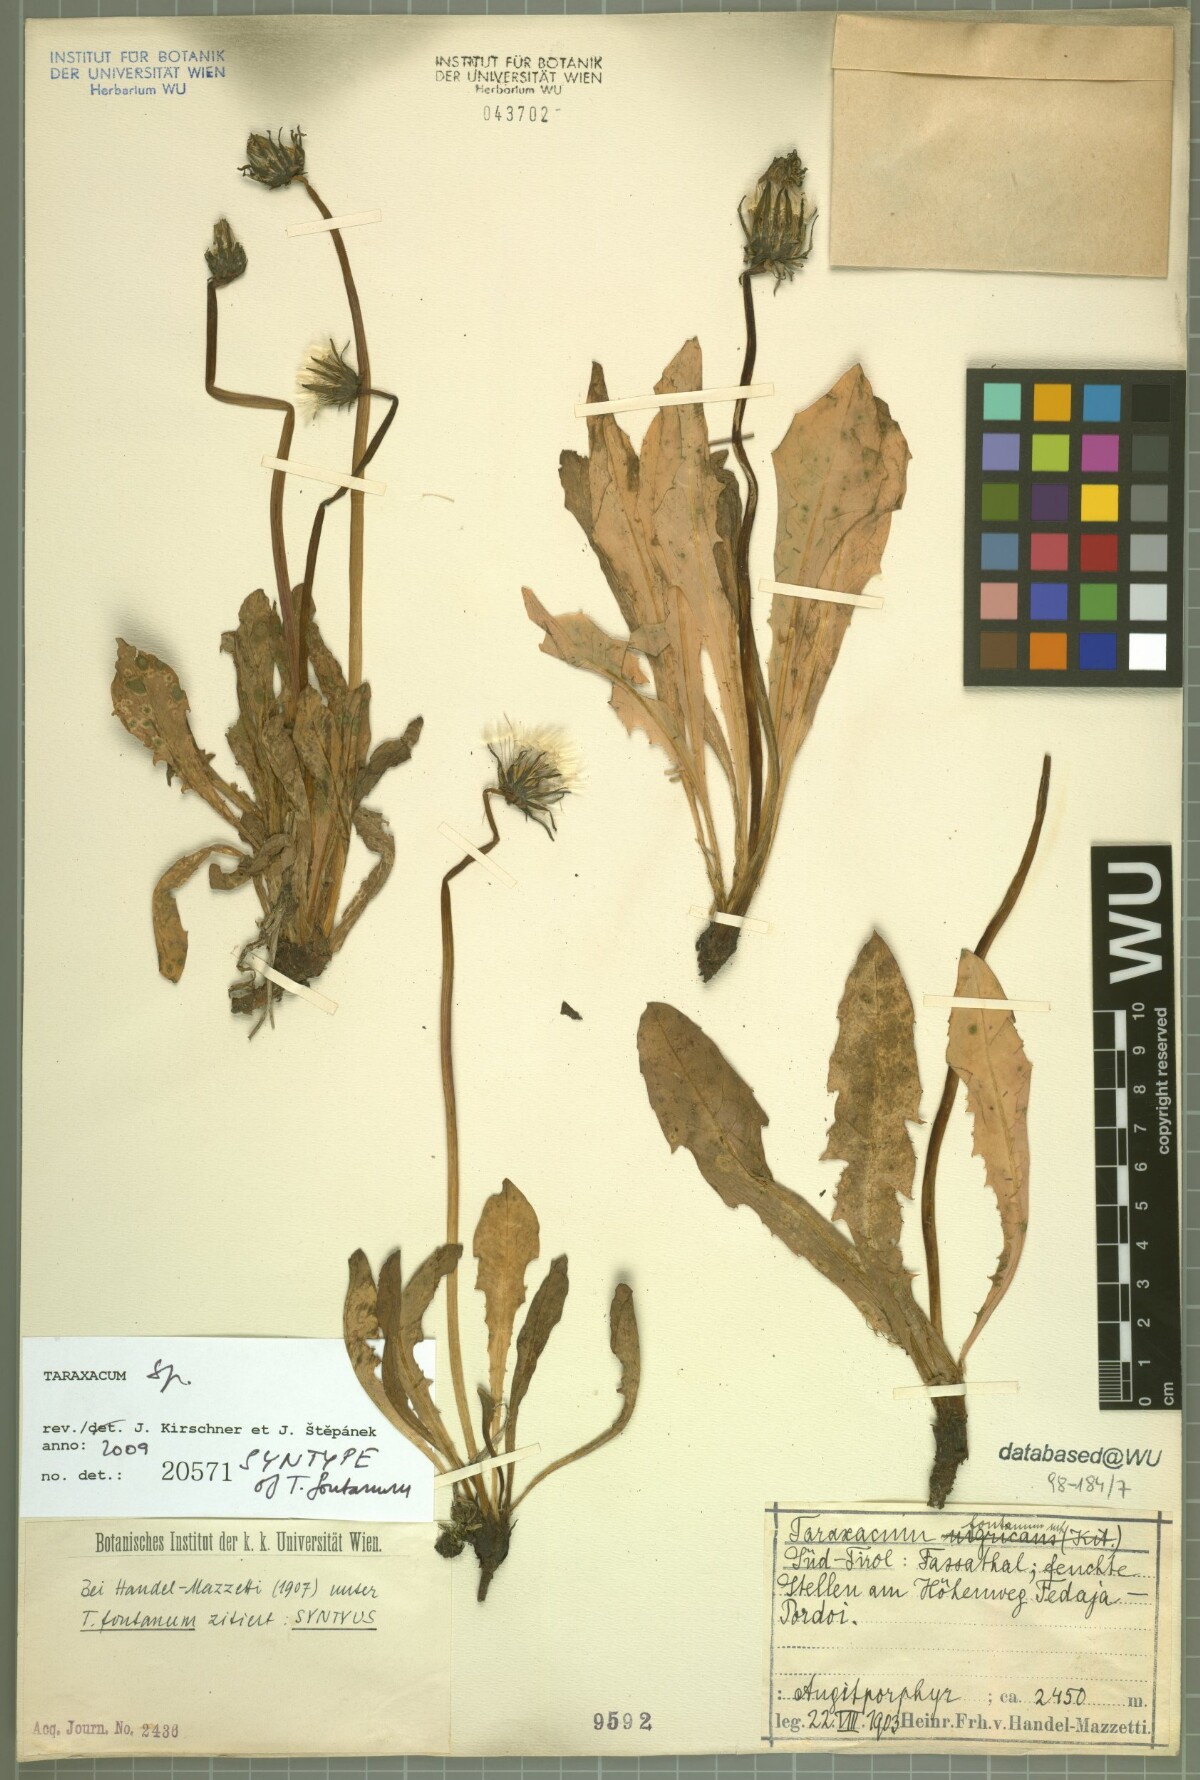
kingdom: Plantae
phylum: Tracheophyta
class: Magnoliopsida
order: Asterales
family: Asteraceae
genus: Taraxacum
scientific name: Taraxacum fontanum
